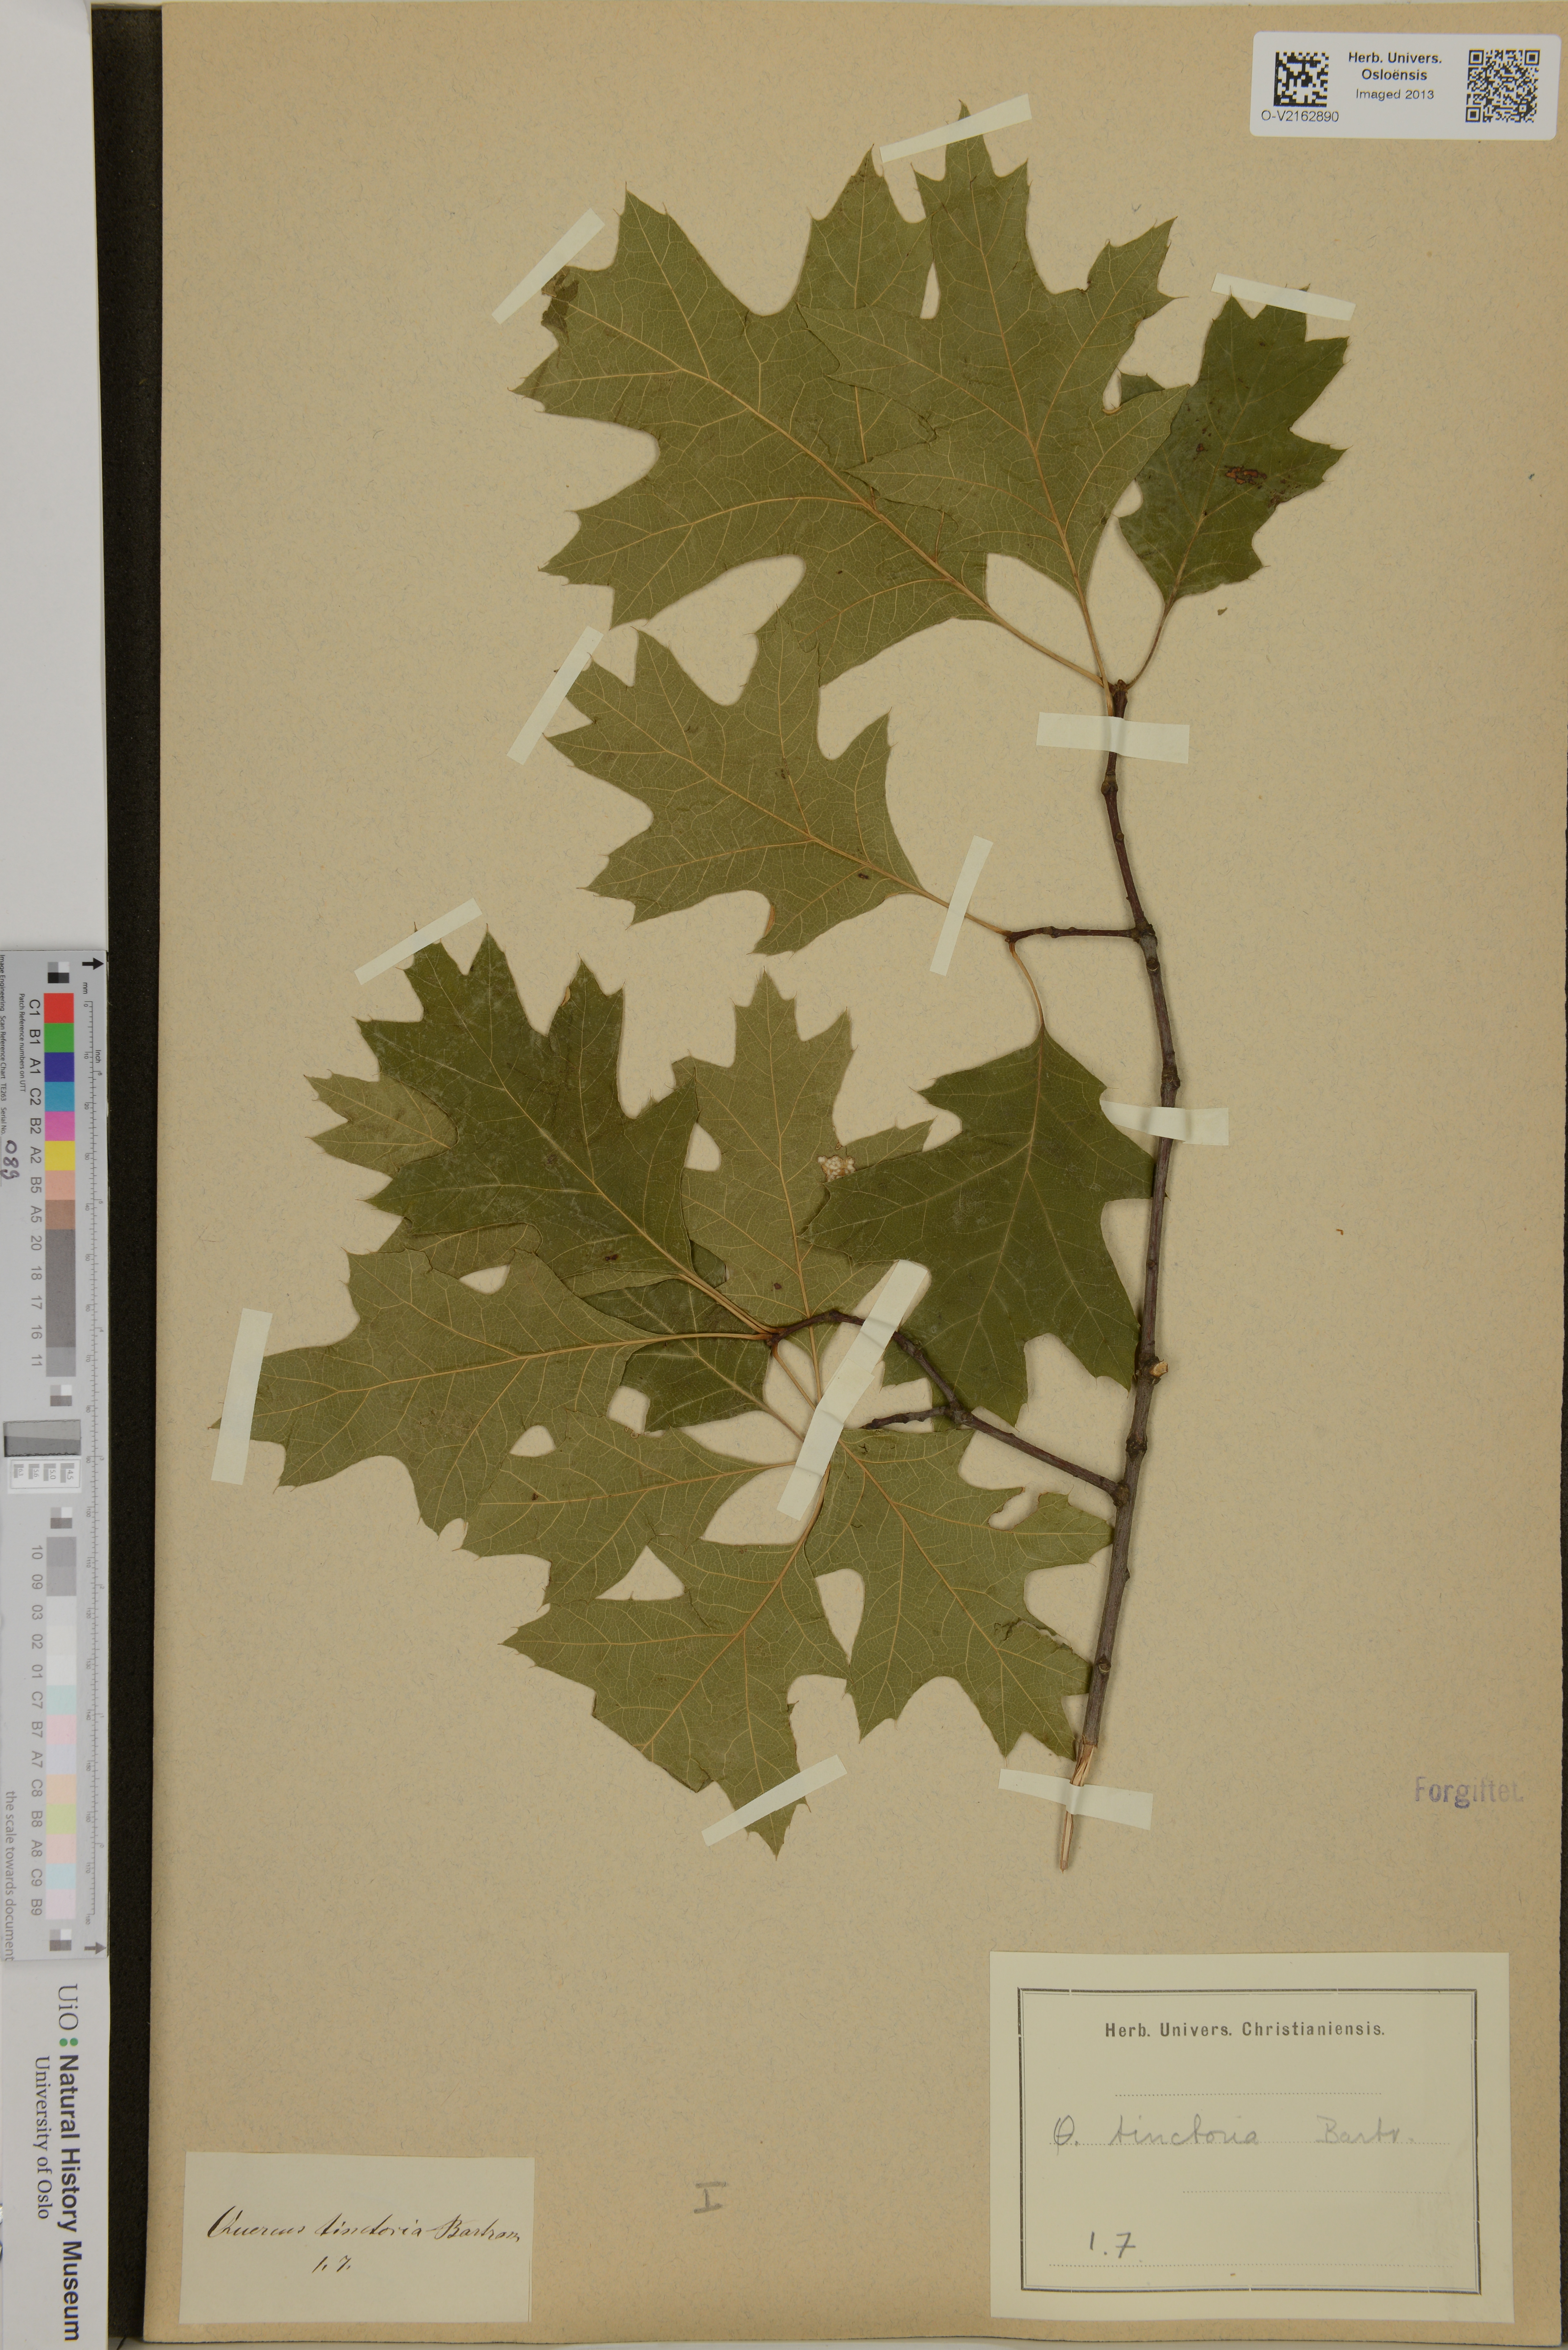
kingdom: Plantae
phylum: Tracheophyta
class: Magnoliopsida
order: Fagales
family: Fagaceae
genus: Quercus
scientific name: Quercus
